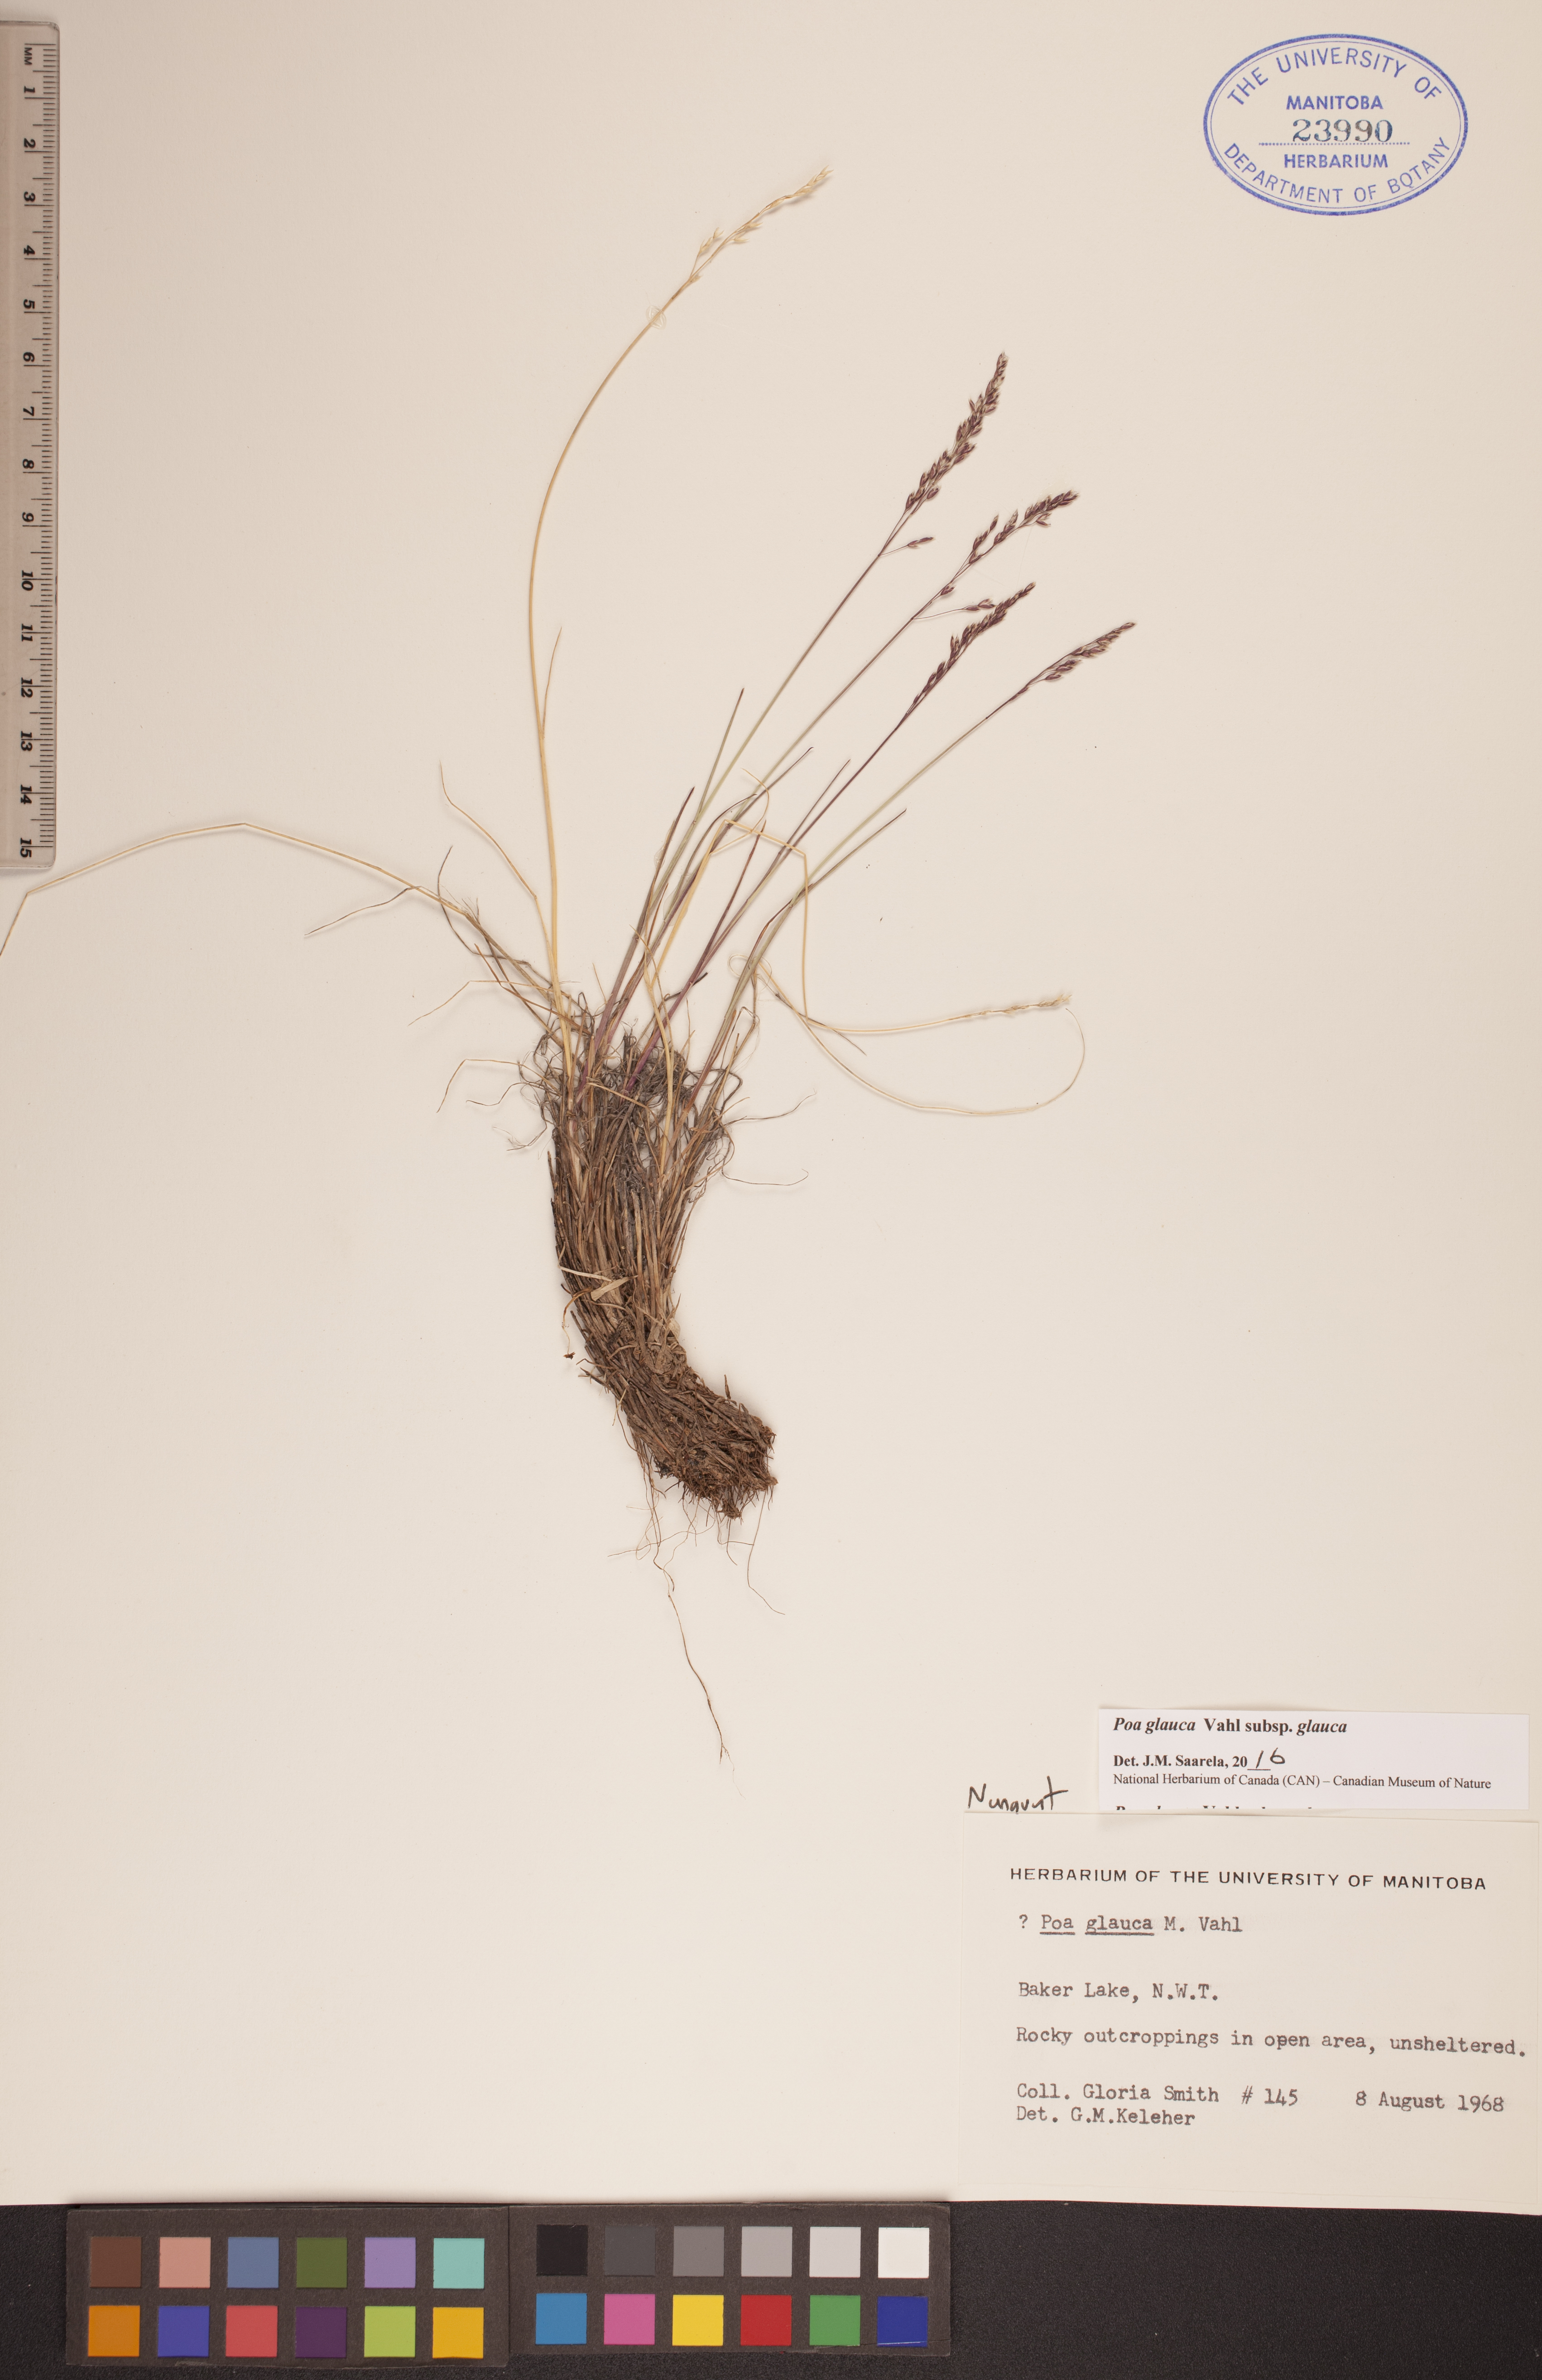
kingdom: Plantae
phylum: Tracheophyta
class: Liliopsida
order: Poales
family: Poaceae
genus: Poa
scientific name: Poa glauca
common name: Glaucous bluegrass
